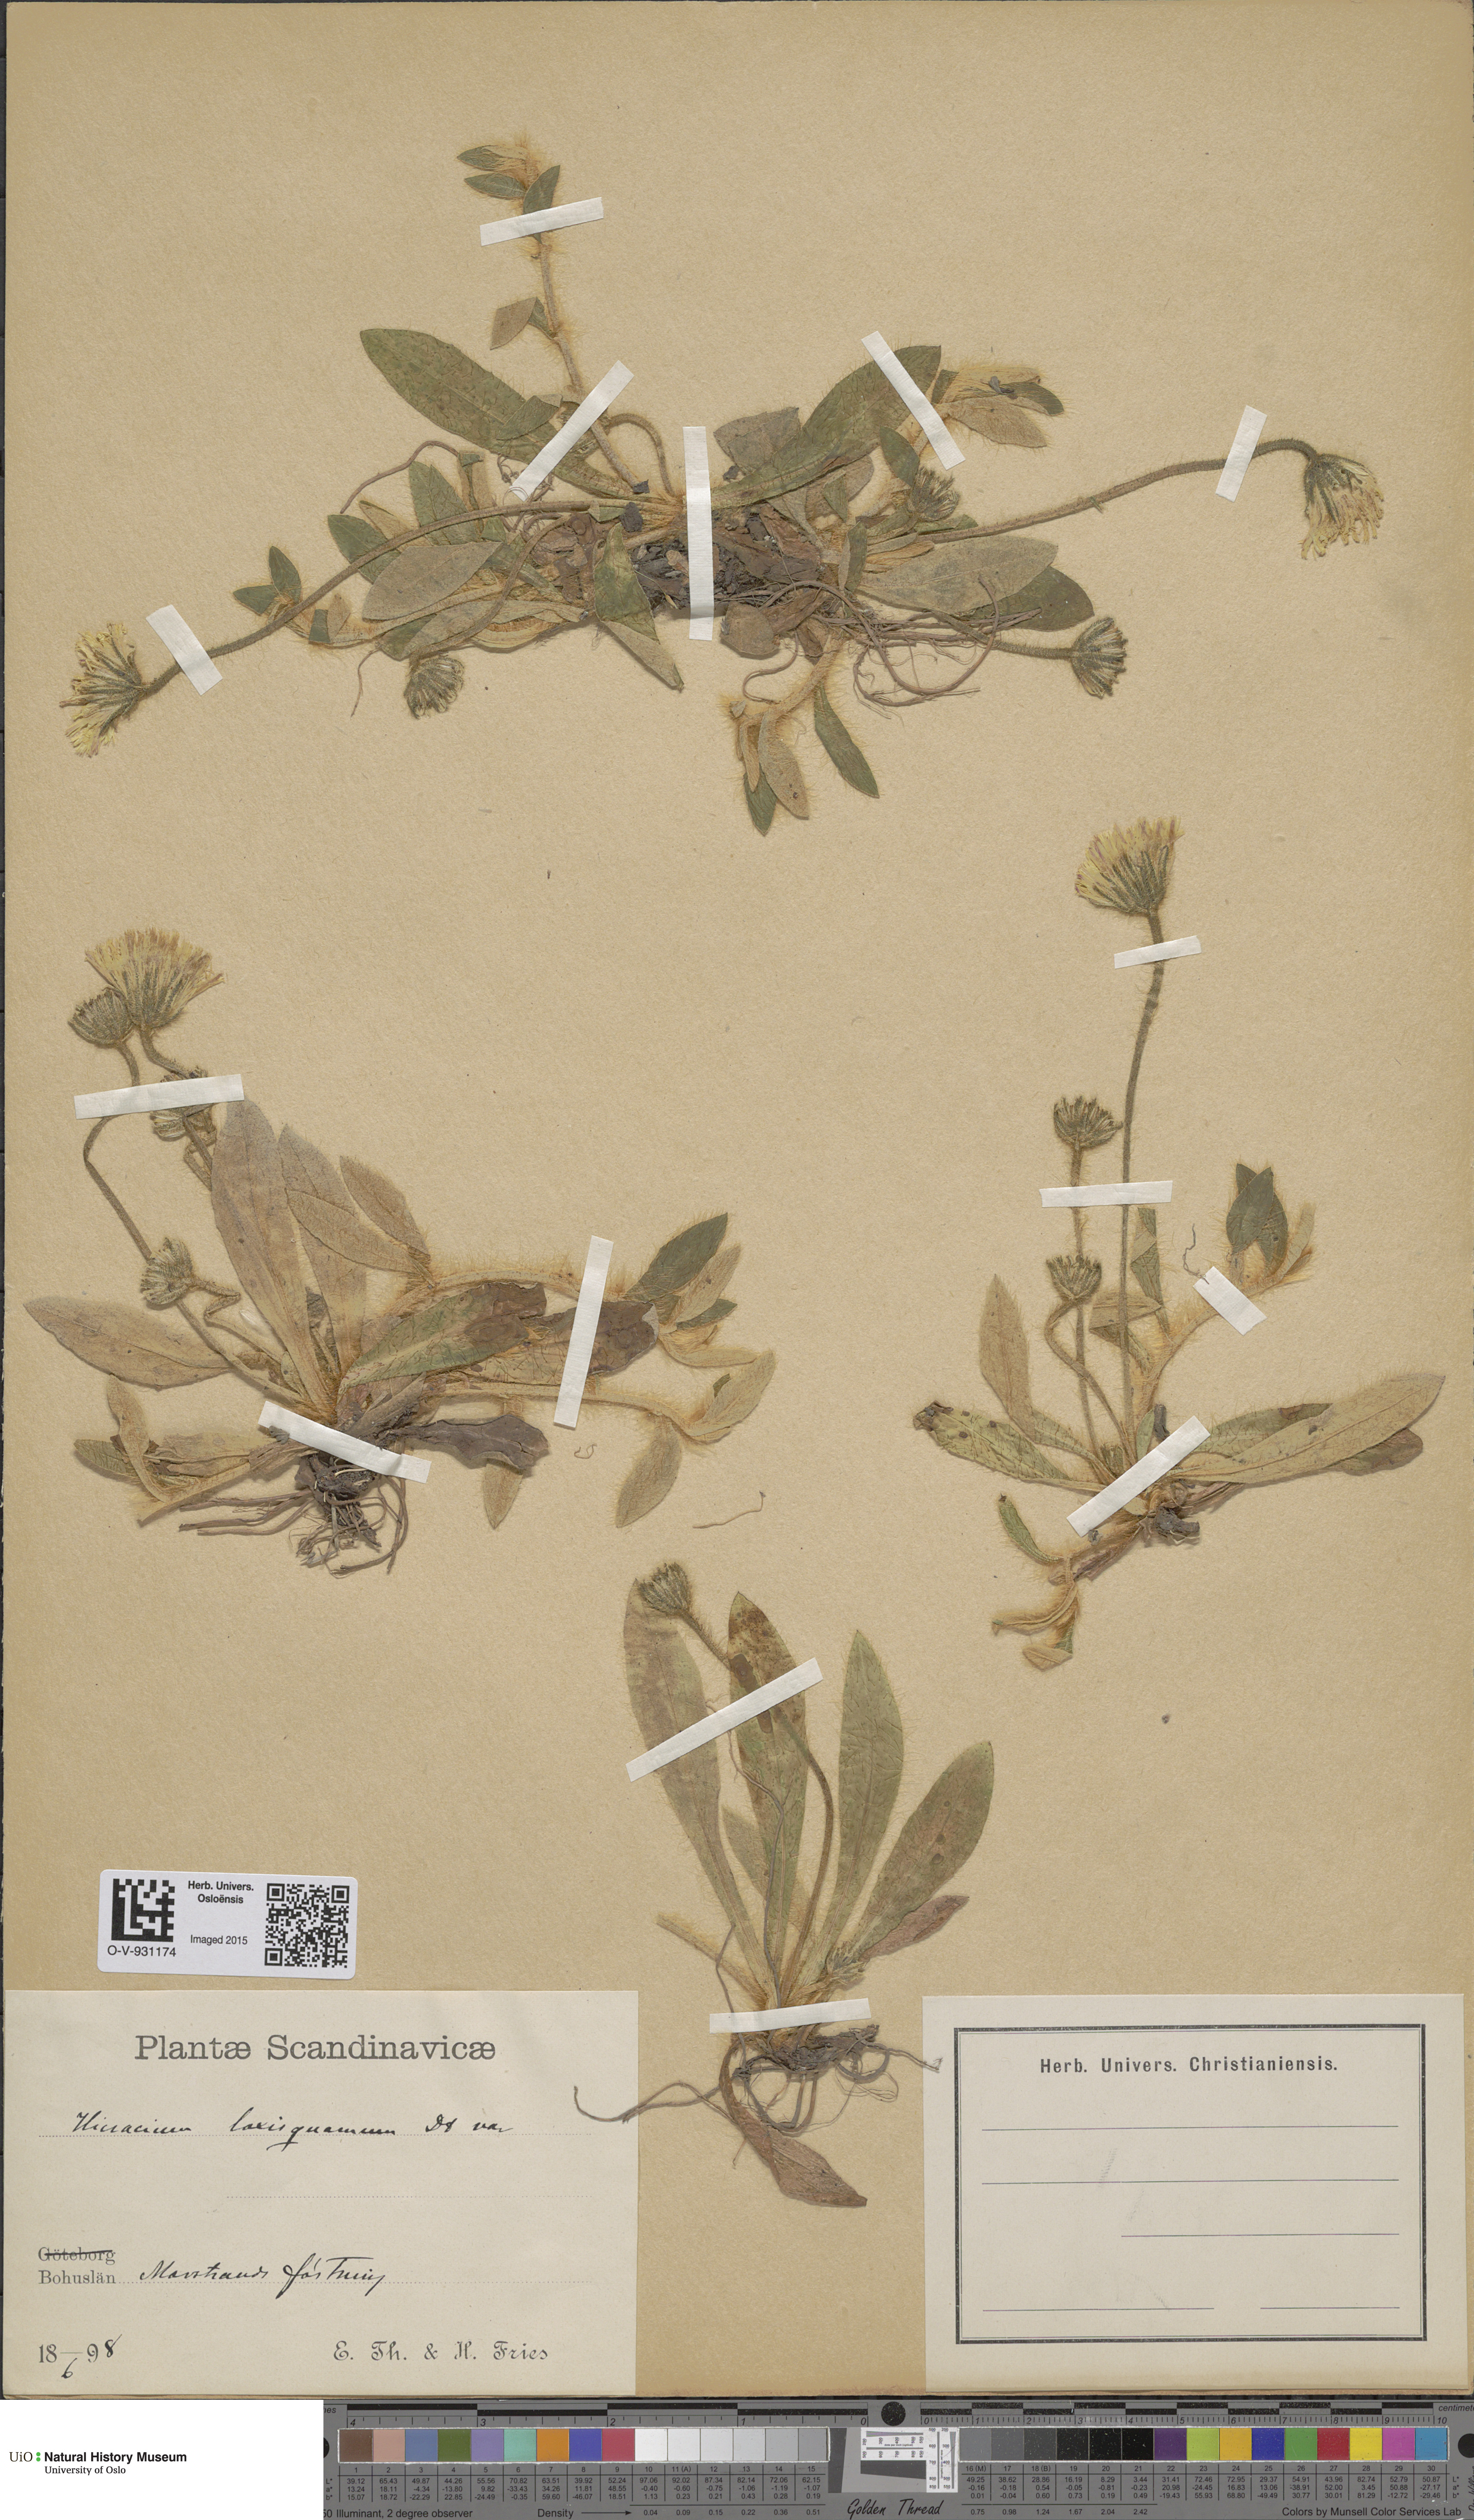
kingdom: Plantae
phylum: Tracheophyta
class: Magnoliopsida
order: Asterales
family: Asteraceae
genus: Hieracium
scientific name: Hieracium
